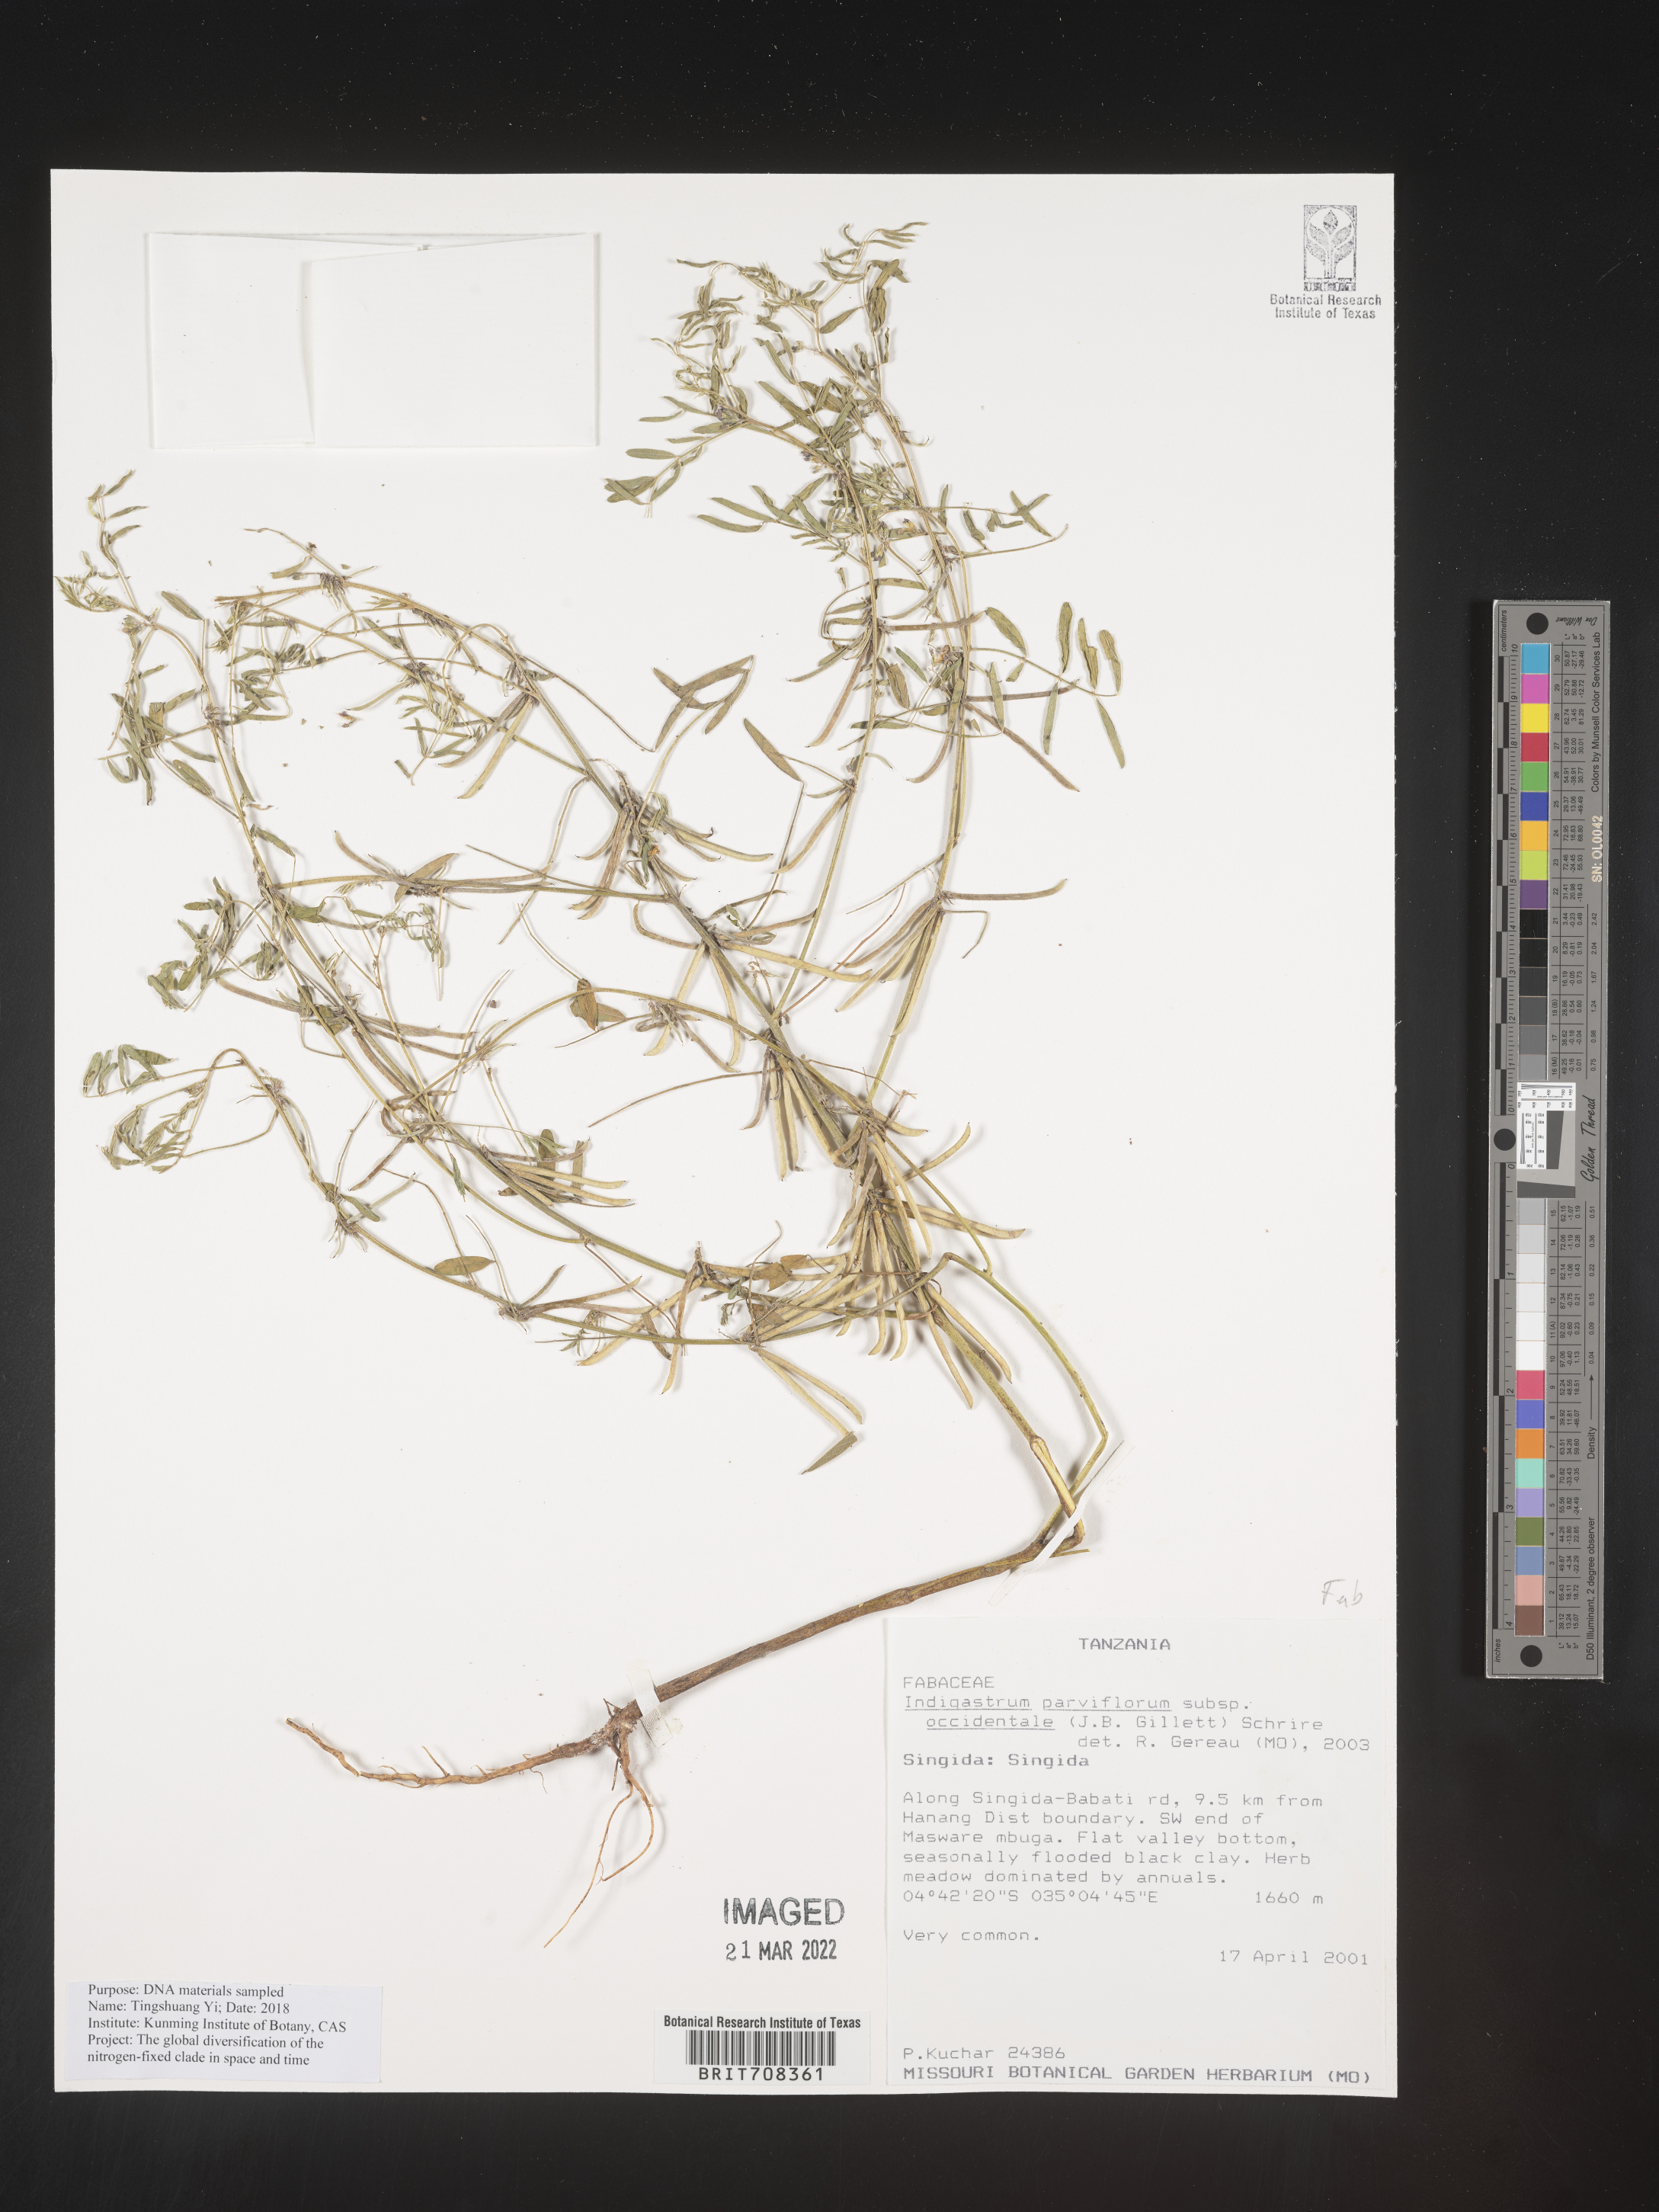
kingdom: Plantae
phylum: Tracheophyta
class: Magnoliopsida
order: Fabales
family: Fabaceae
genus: Indigastrum
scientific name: Indigastrum
